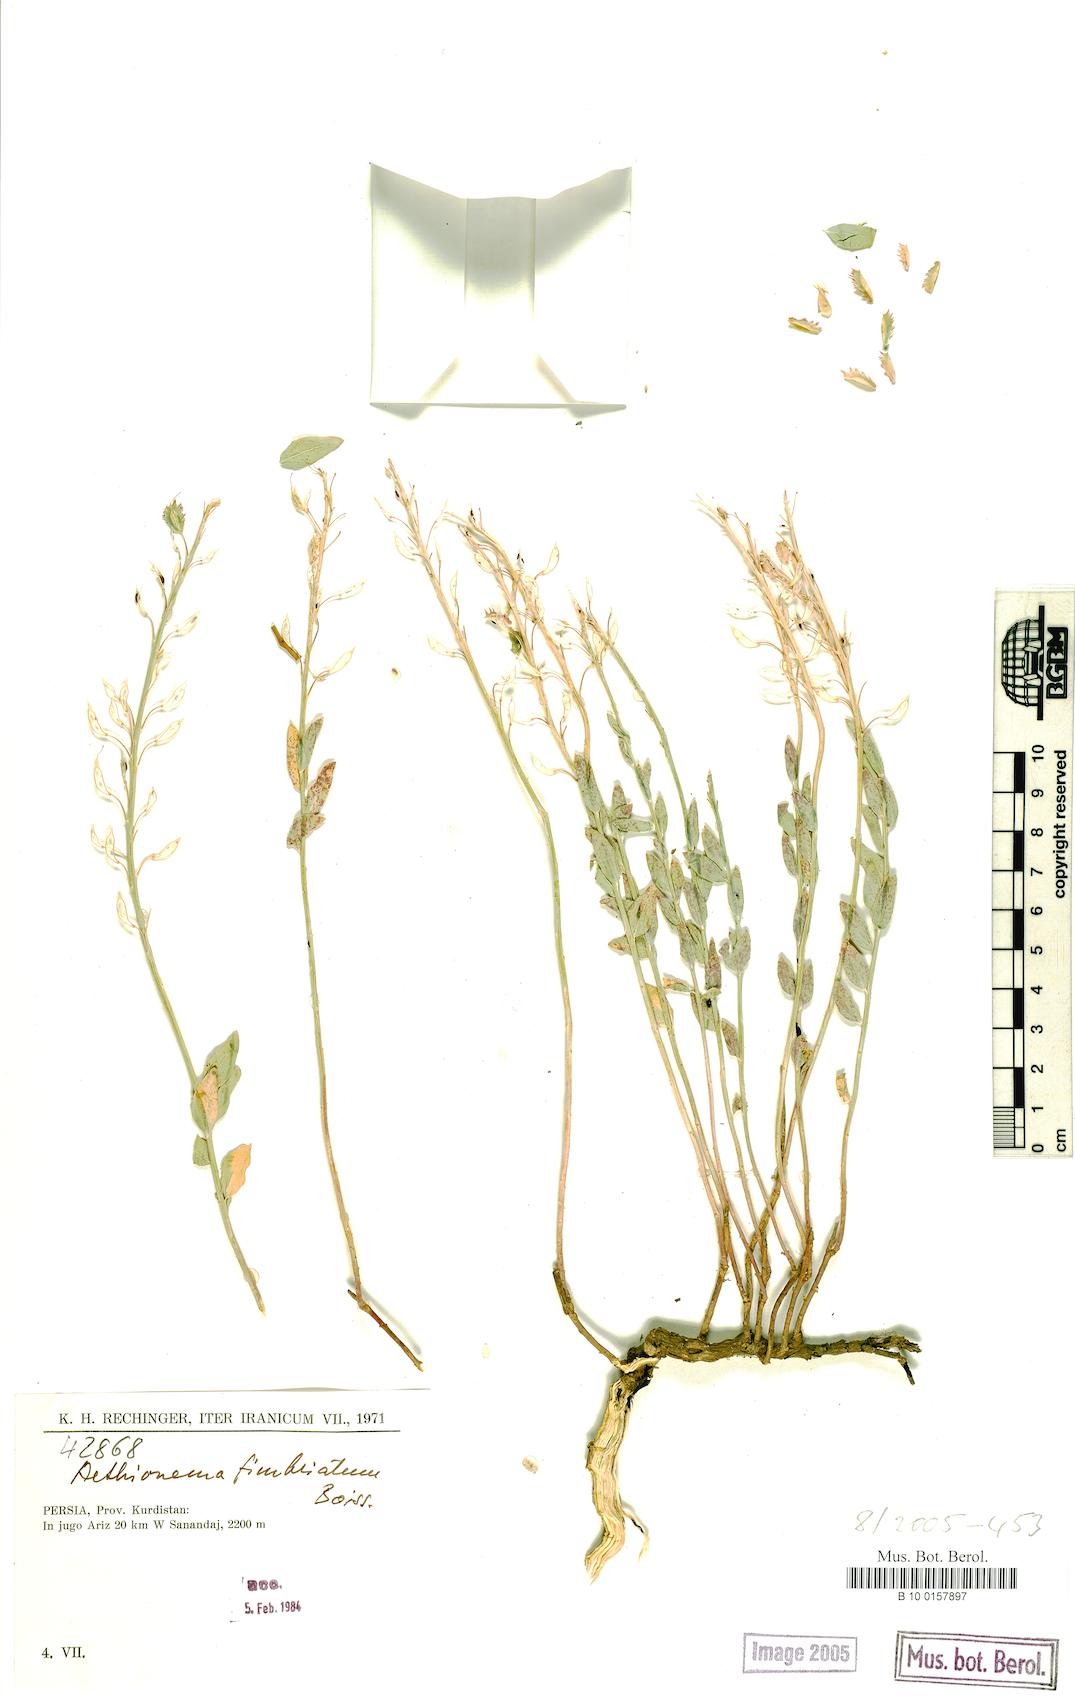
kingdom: Plantae
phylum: Tracheophyta
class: Magnoliopsida
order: Brassicales
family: Brassicaceae
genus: Aethionema
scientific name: Aethionema fimbriatum
